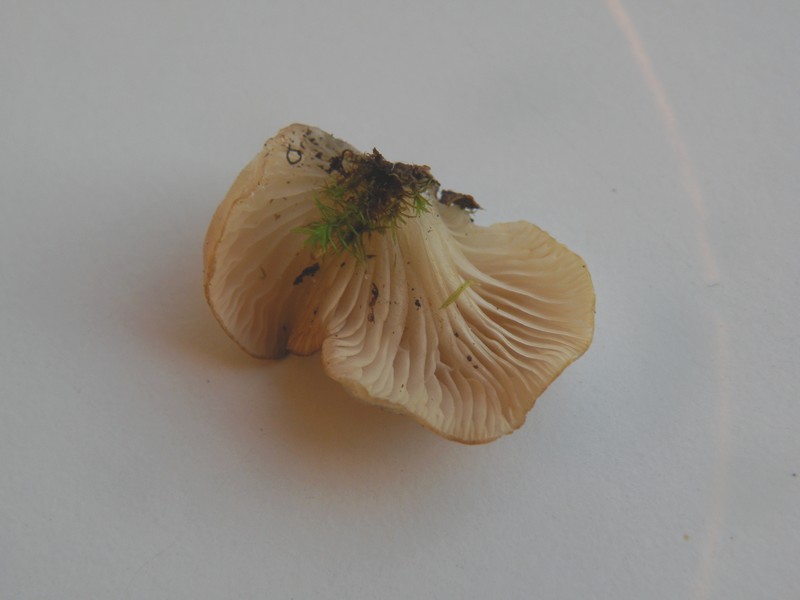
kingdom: Fungi
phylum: Basidiomycota
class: Agaricomycetes
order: Agaricales
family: Sarcomyxaceae
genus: Sarcomyxa
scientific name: Sarcomyxa serotina
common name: gummihat
